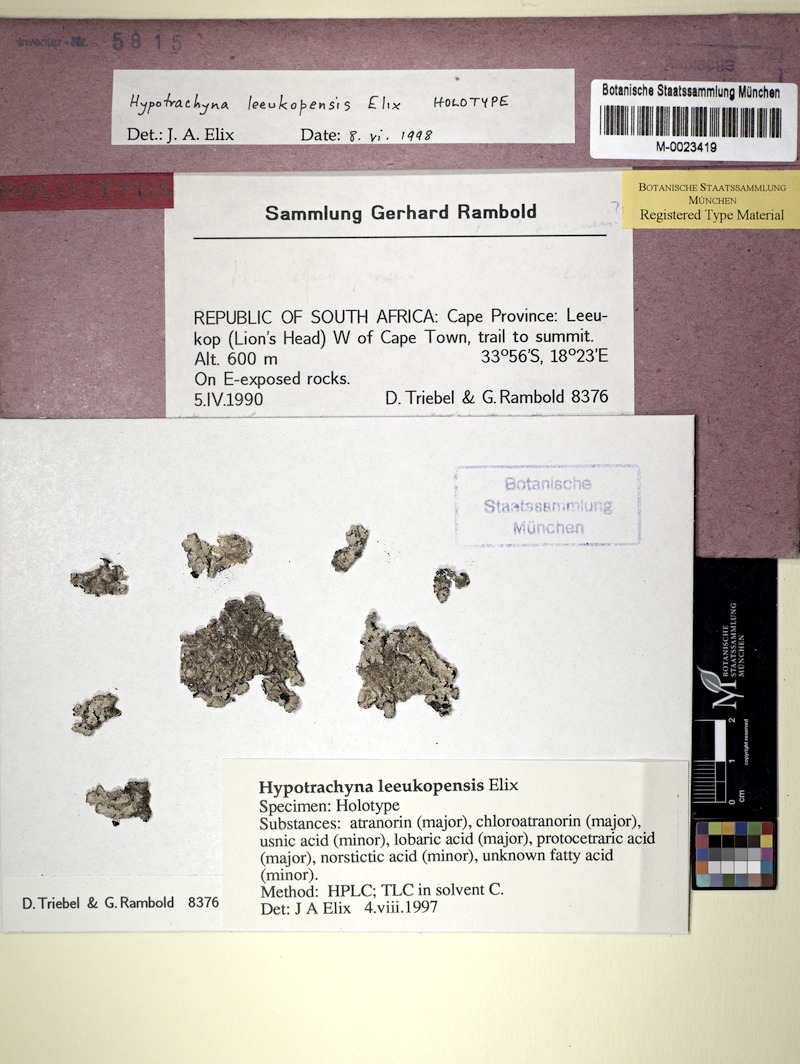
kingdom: Fungi
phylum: Ascomycota
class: Lecanoromycetes
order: Lecanorales
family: Parmeliaceae
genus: Hypotrachyna
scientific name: Hypotrachyna
